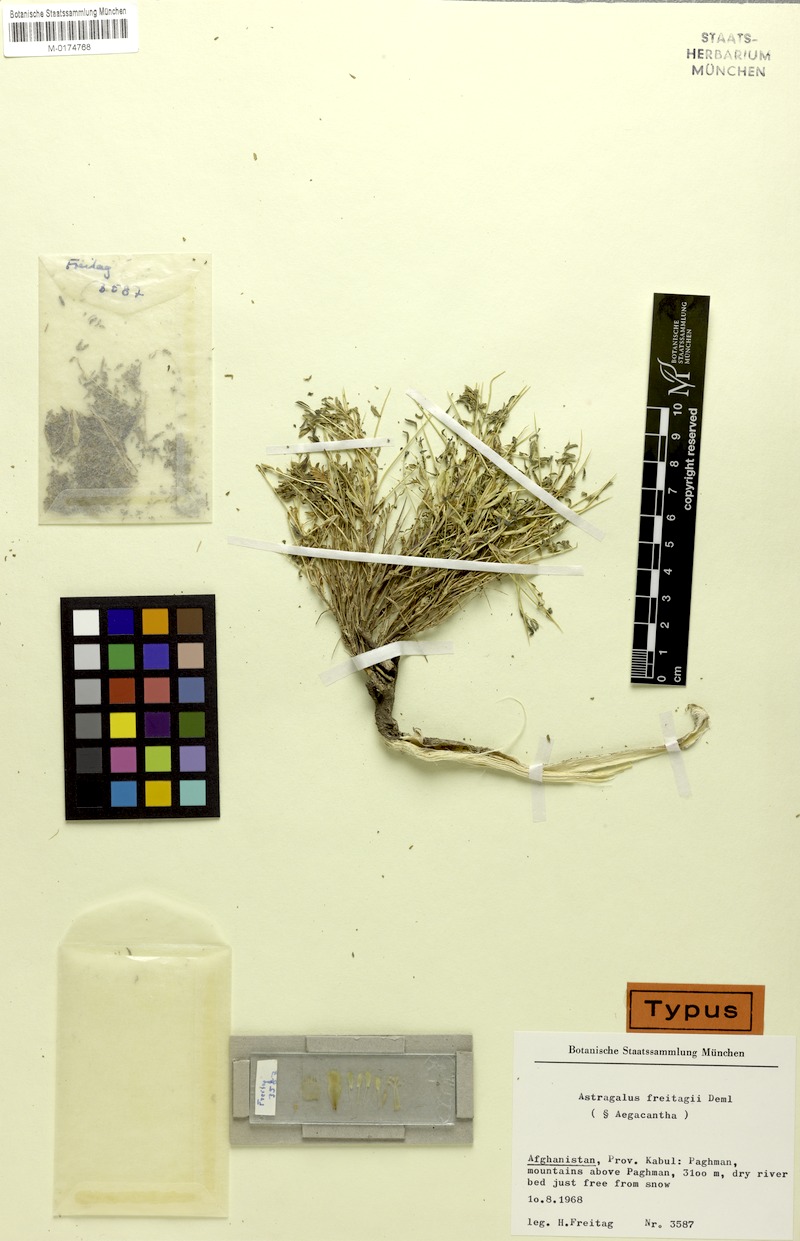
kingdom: Plantae
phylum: Tracheophyta
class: Magnoliopsida
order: Fabales
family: Fabaceae
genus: Astragalus
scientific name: Astragalus freitagii
